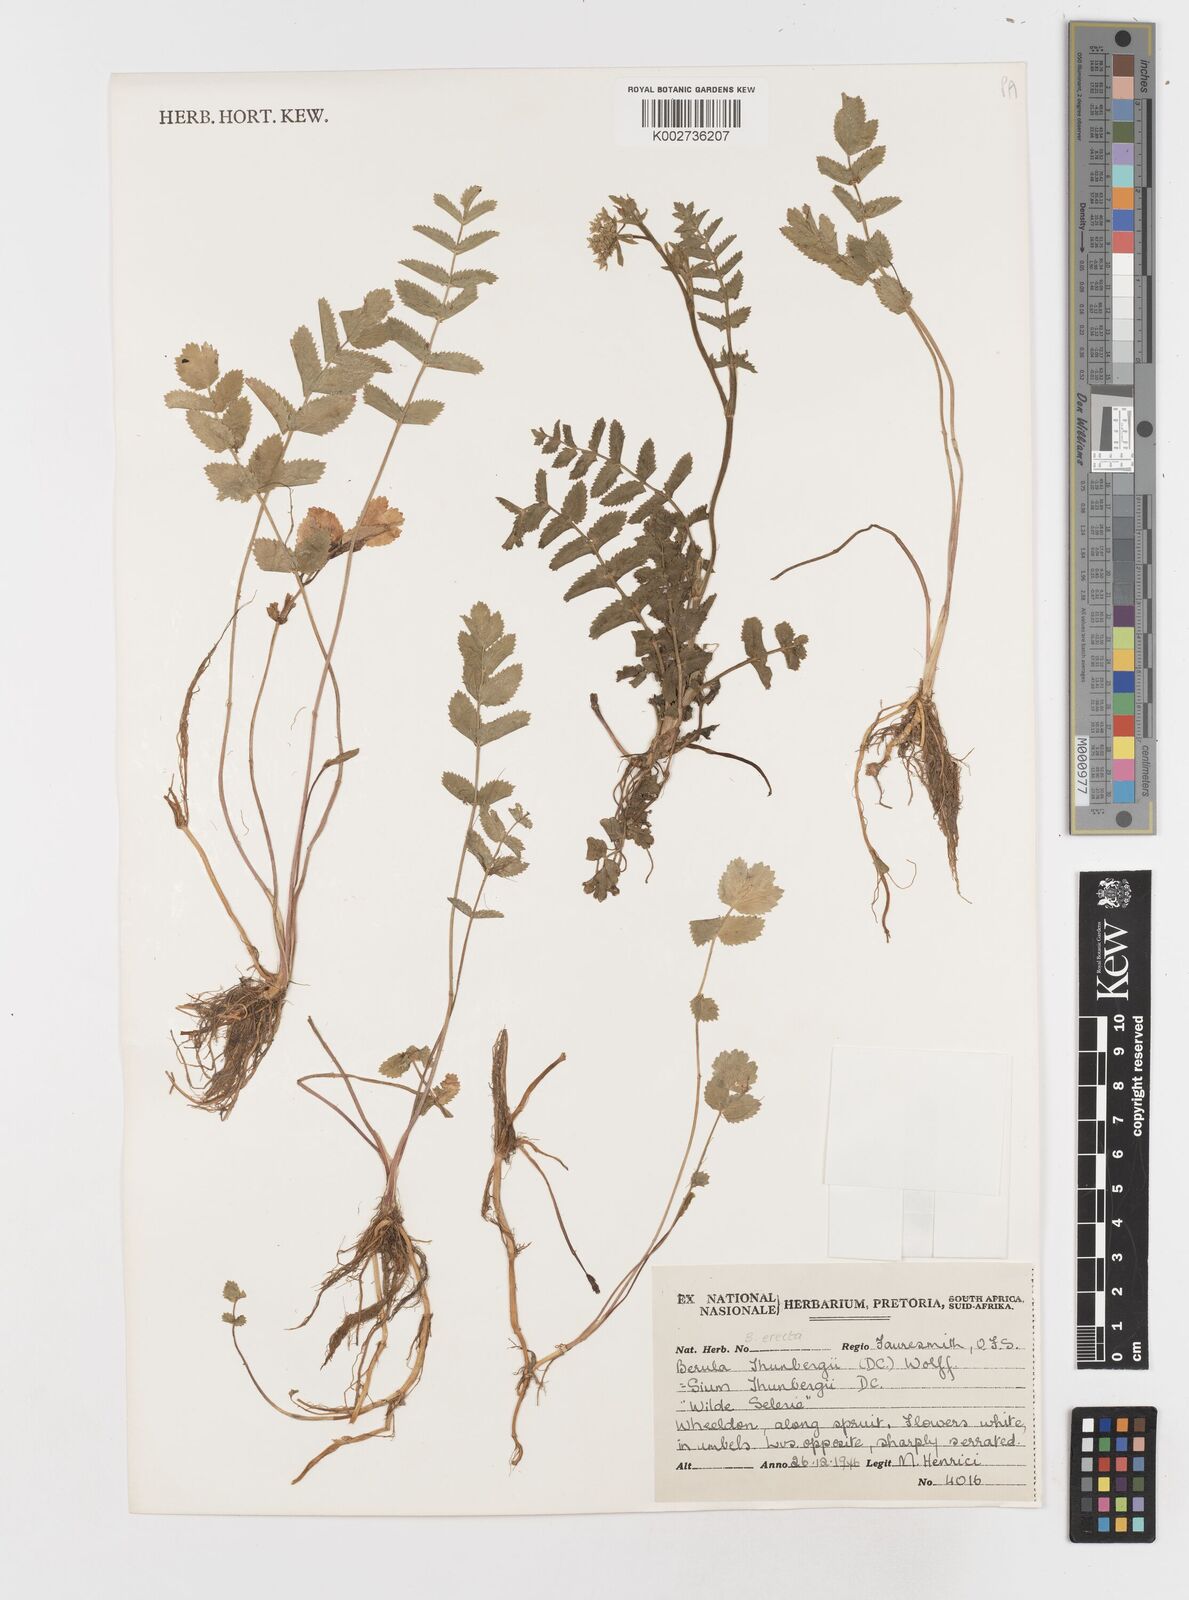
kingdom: Plantae
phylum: Tracheophyta
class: Magnoliopsida
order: Apiales
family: Apiaceae
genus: Berula
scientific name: Berula erecta
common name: Lesser water-parsnip
